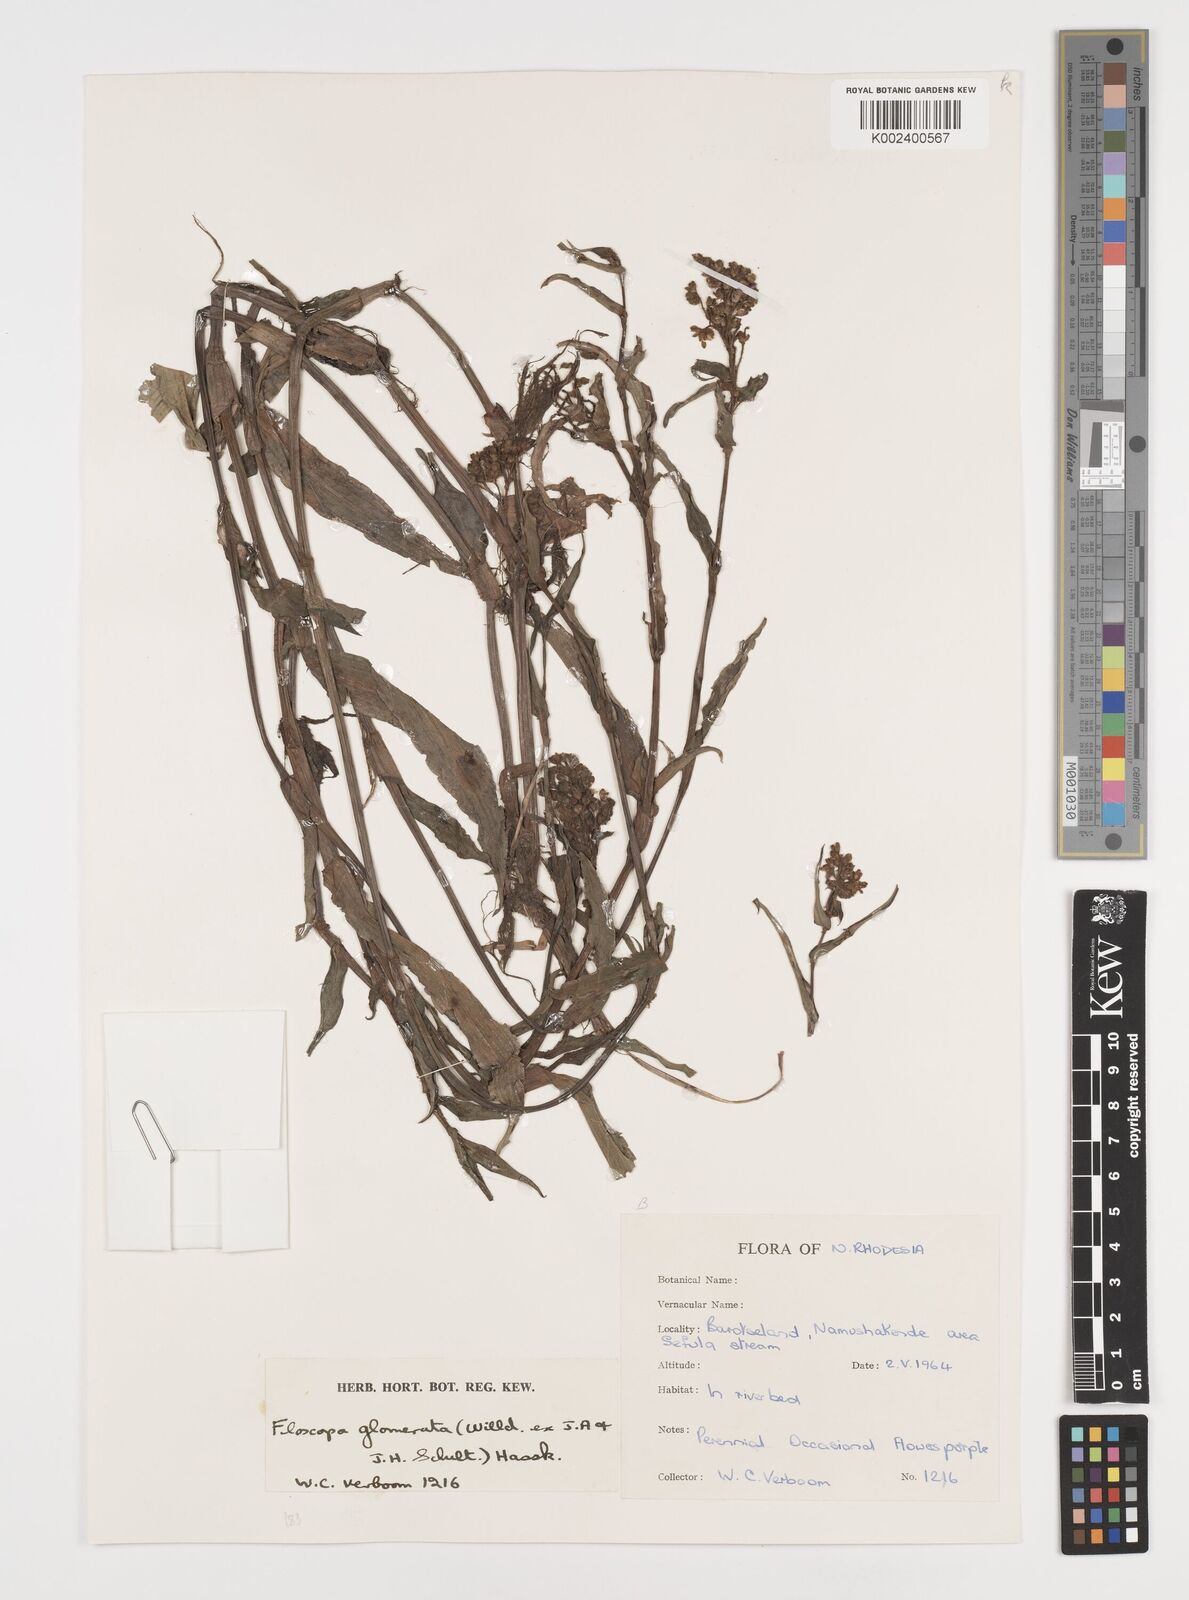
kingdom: Plantae
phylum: Tracheophyta
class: Liliopsida
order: Commelinales
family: Commelinaceae
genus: Floscopa
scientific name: Floscopa glomerata
